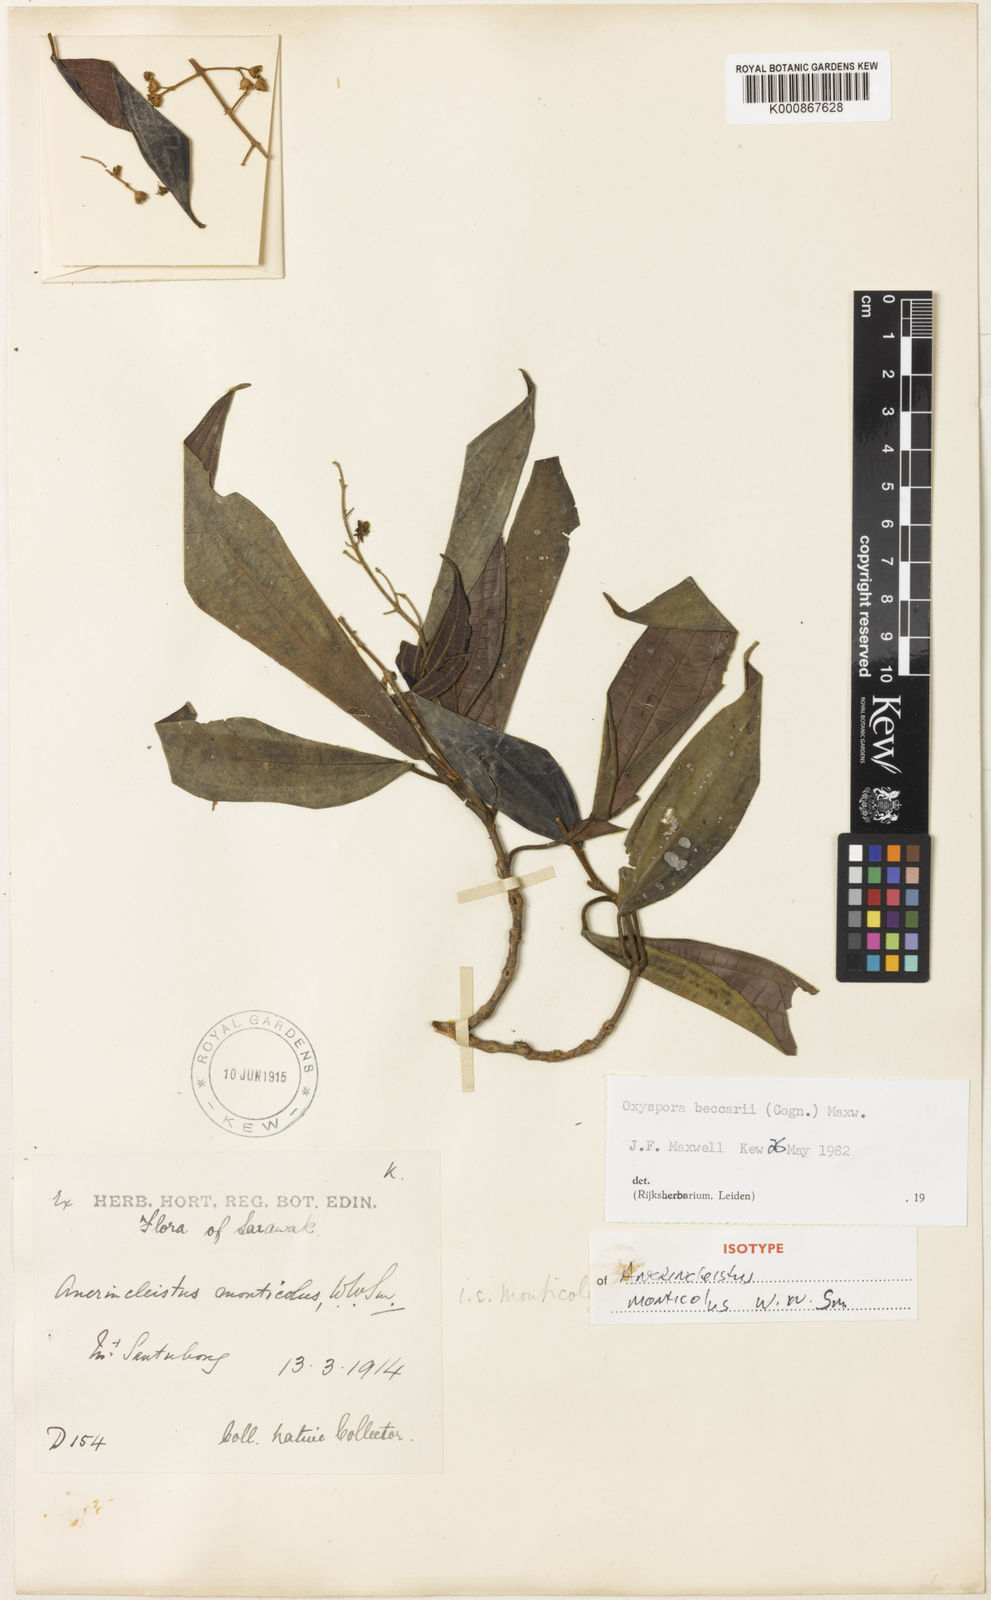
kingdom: Plantae
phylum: Tracheophyta
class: Magnoliopsida
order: Myrtales
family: Melastomataceae
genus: Oxyspora
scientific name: Oxyspora beccarii
